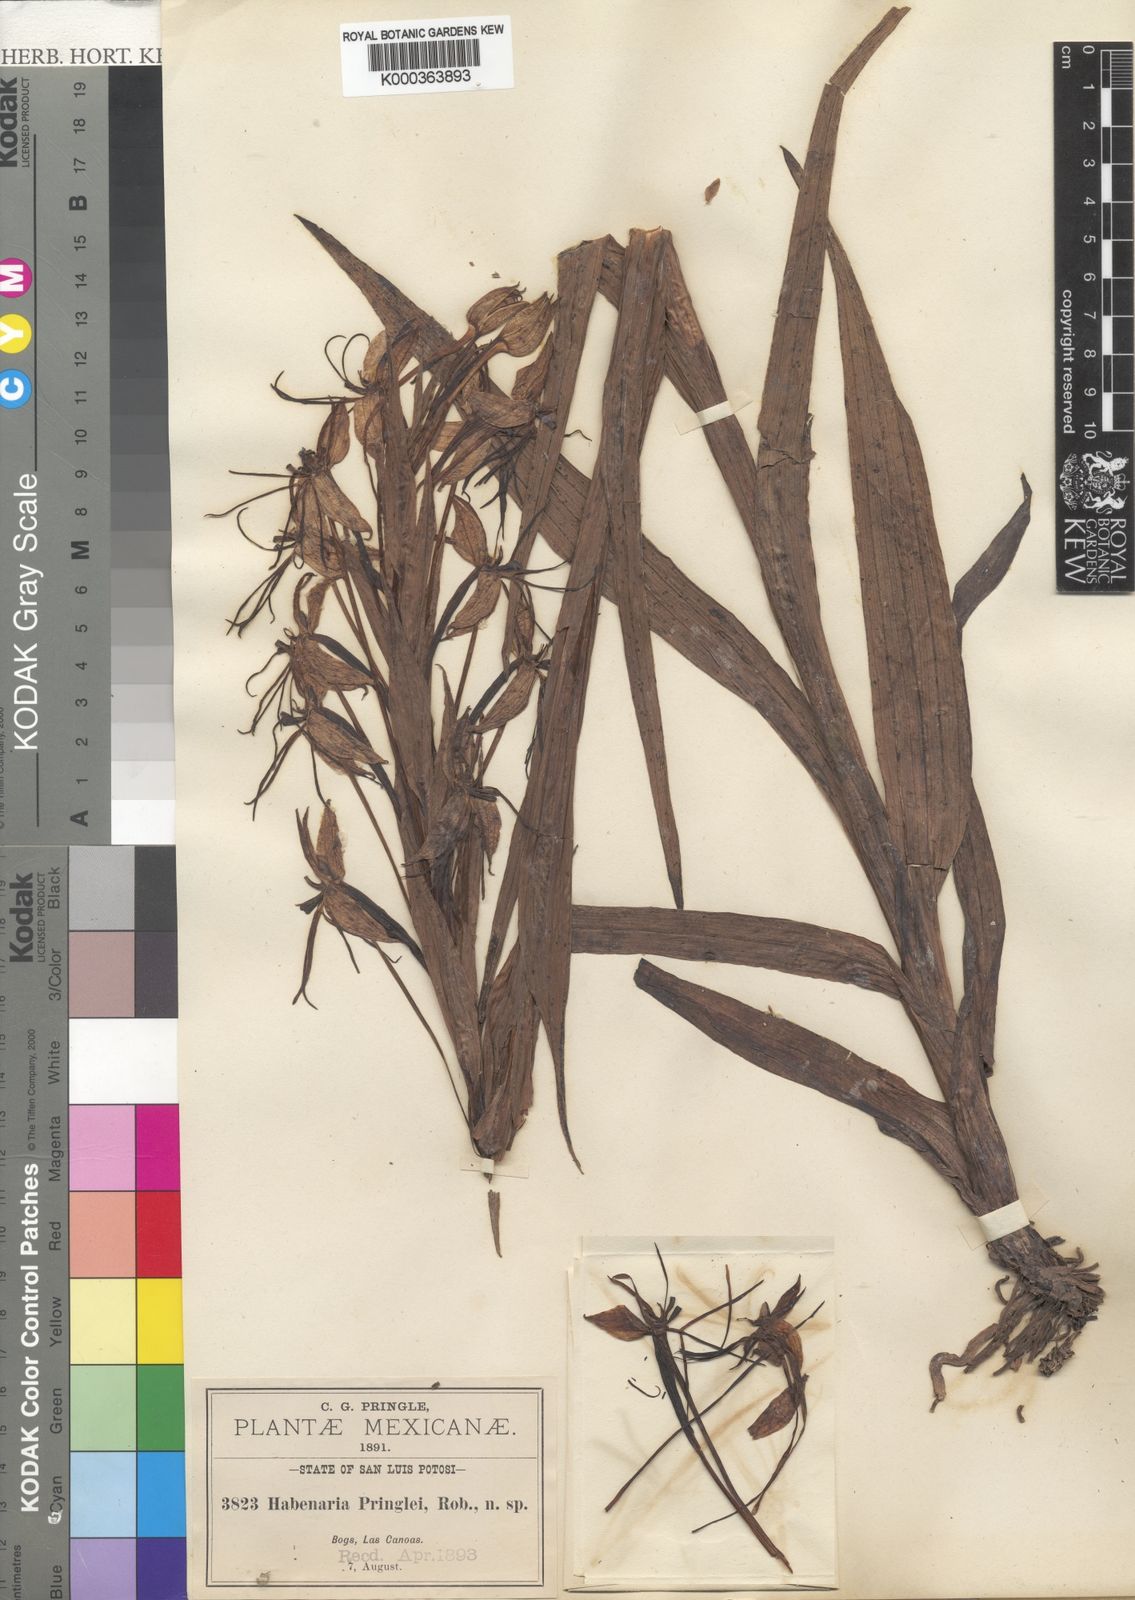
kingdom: Plantae
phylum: Tracheophyta
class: Liliopsida
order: Asparagales
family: Orchidaceae
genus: Habenaria
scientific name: Habenaria pringlei
